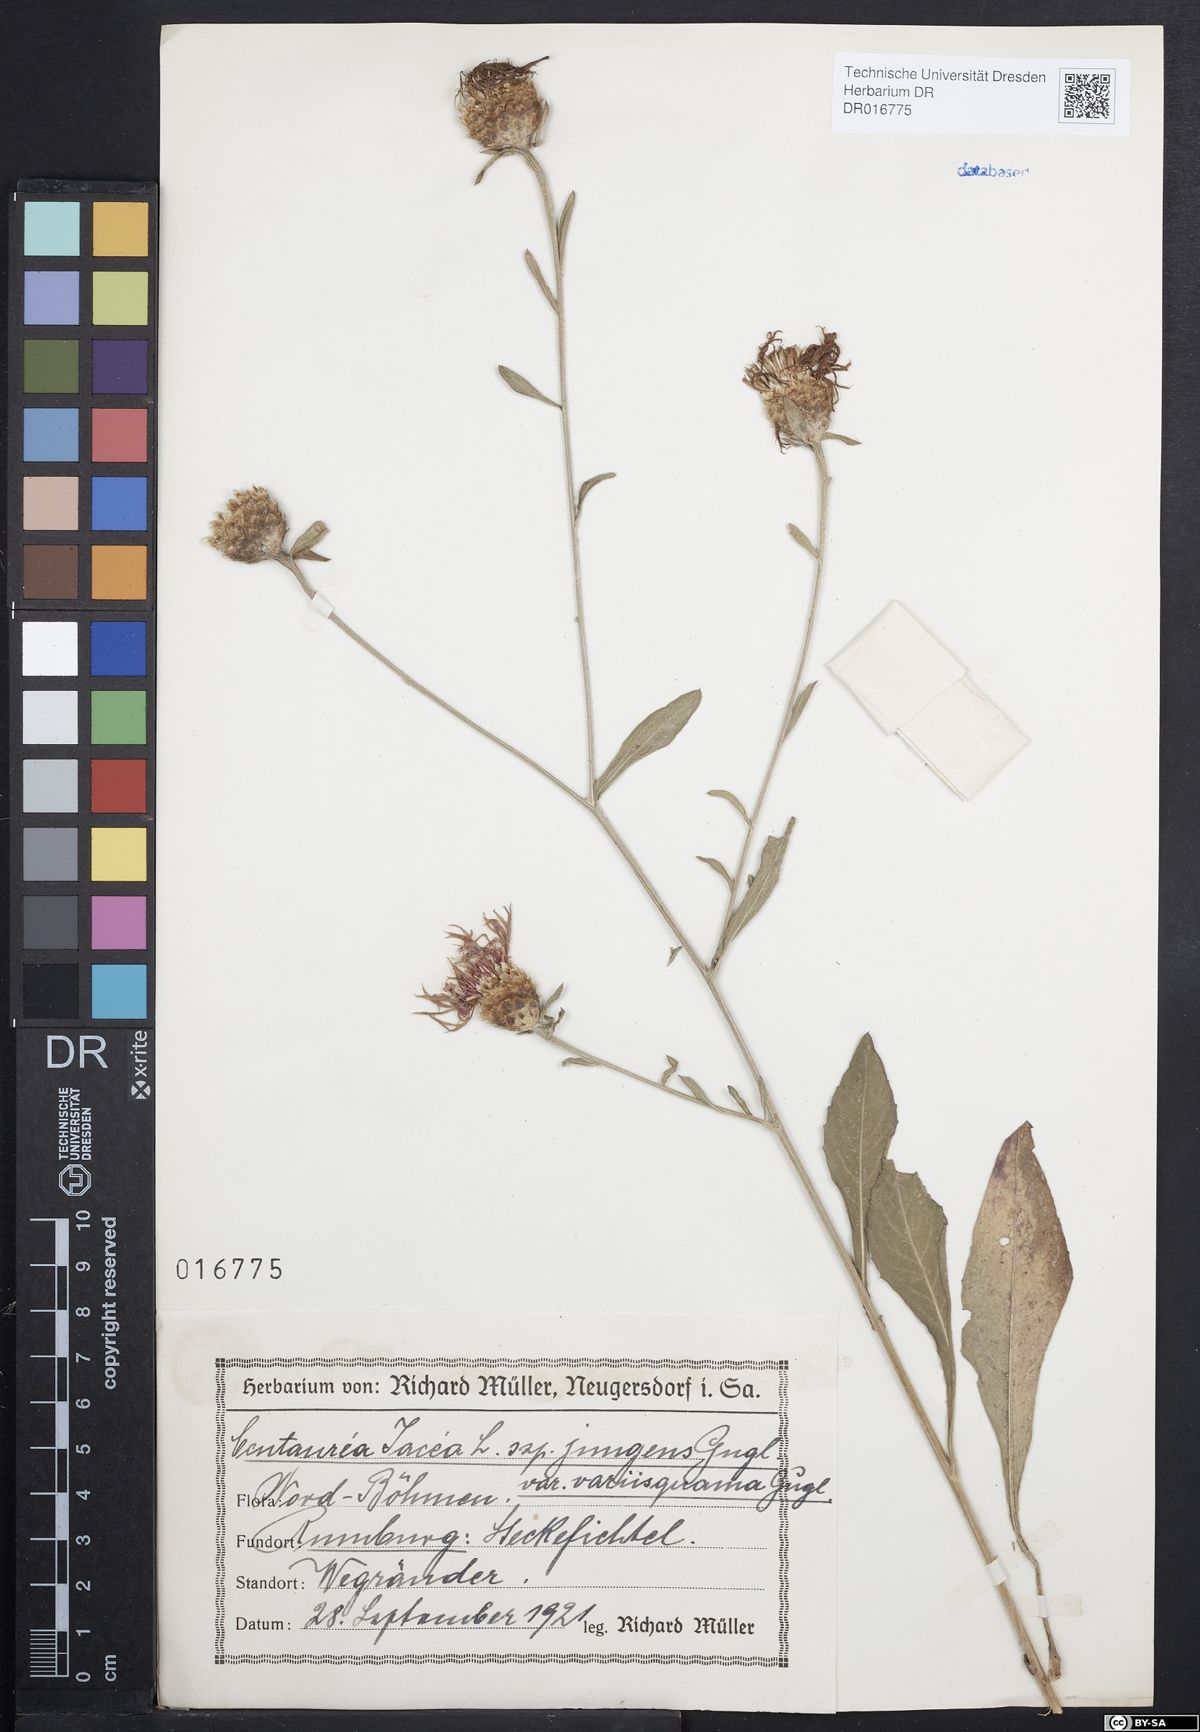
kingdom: Plantae
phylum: Tracheophyta
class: Magnoliopsida
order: Asterales
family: Asteraceae
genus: Centaurea
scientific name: Centaurea jacea
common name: Brown knapweed
